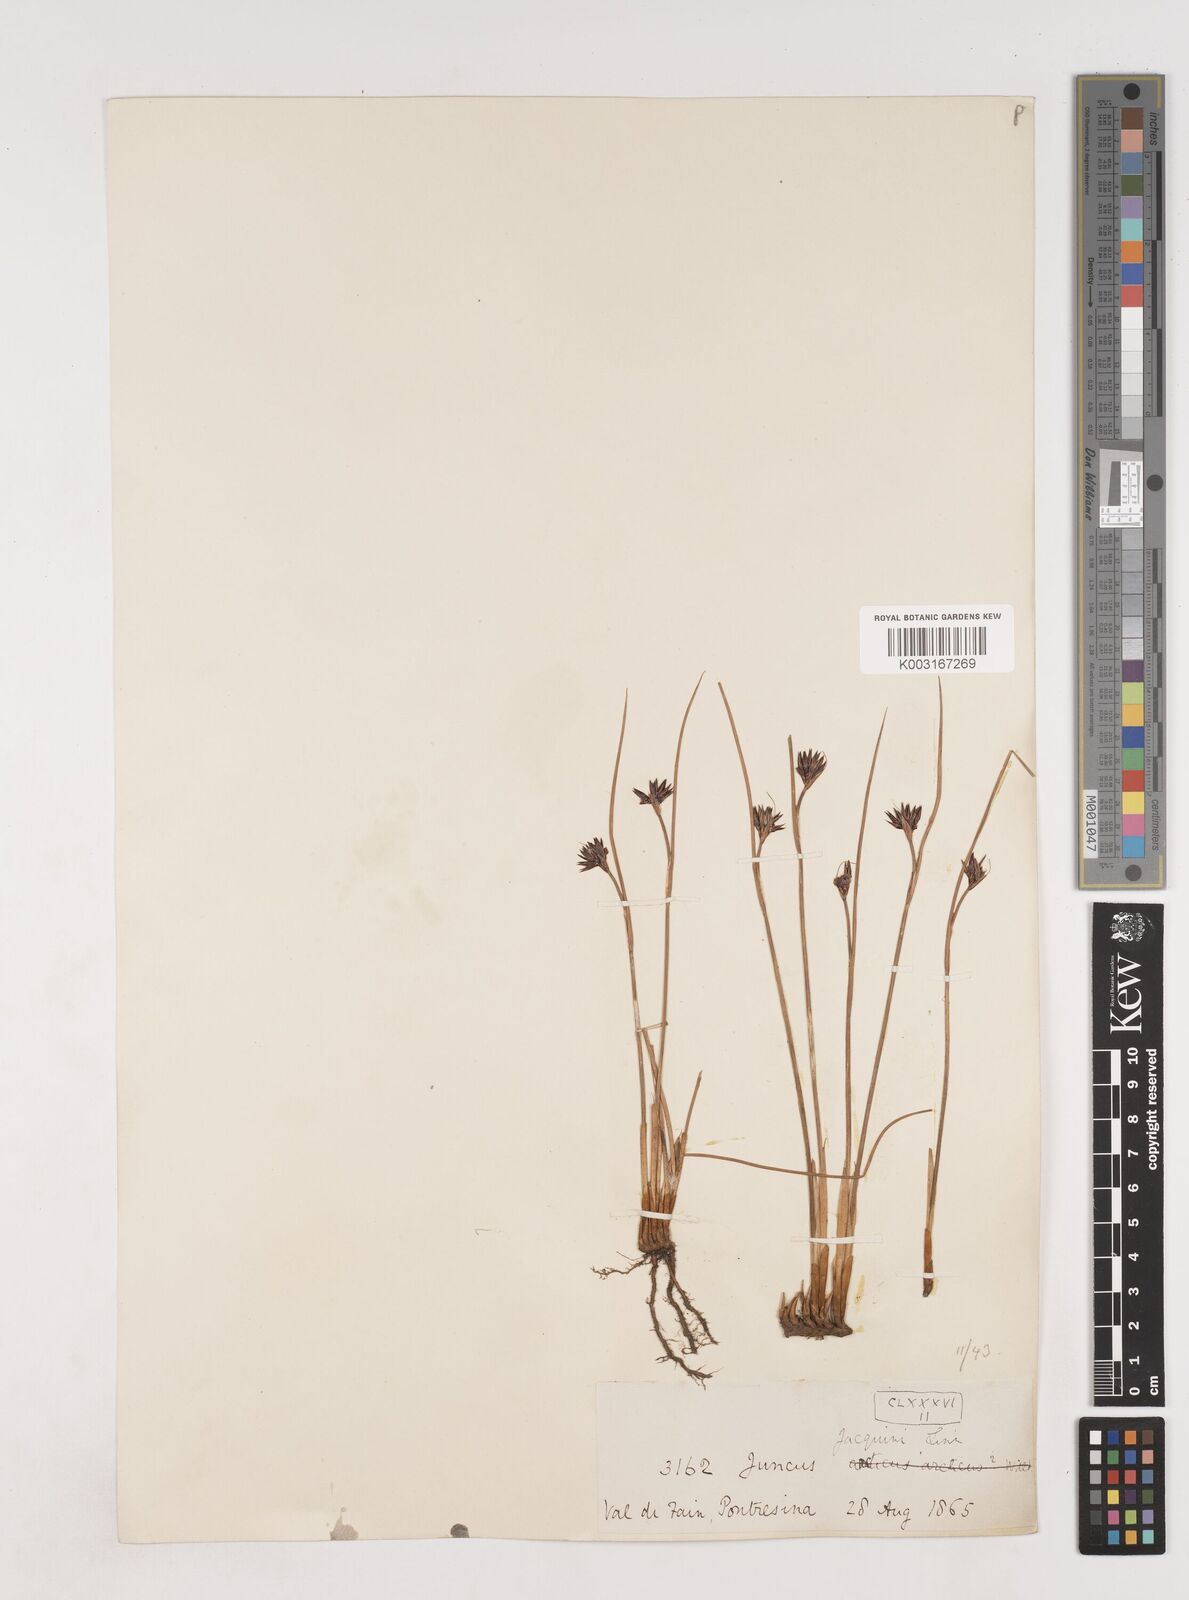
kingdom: Plantae
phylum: Tracheophyta
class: Liliopsida
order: Poales
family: Juncaceae
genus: Juncus
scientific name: Juncus jacquinii
